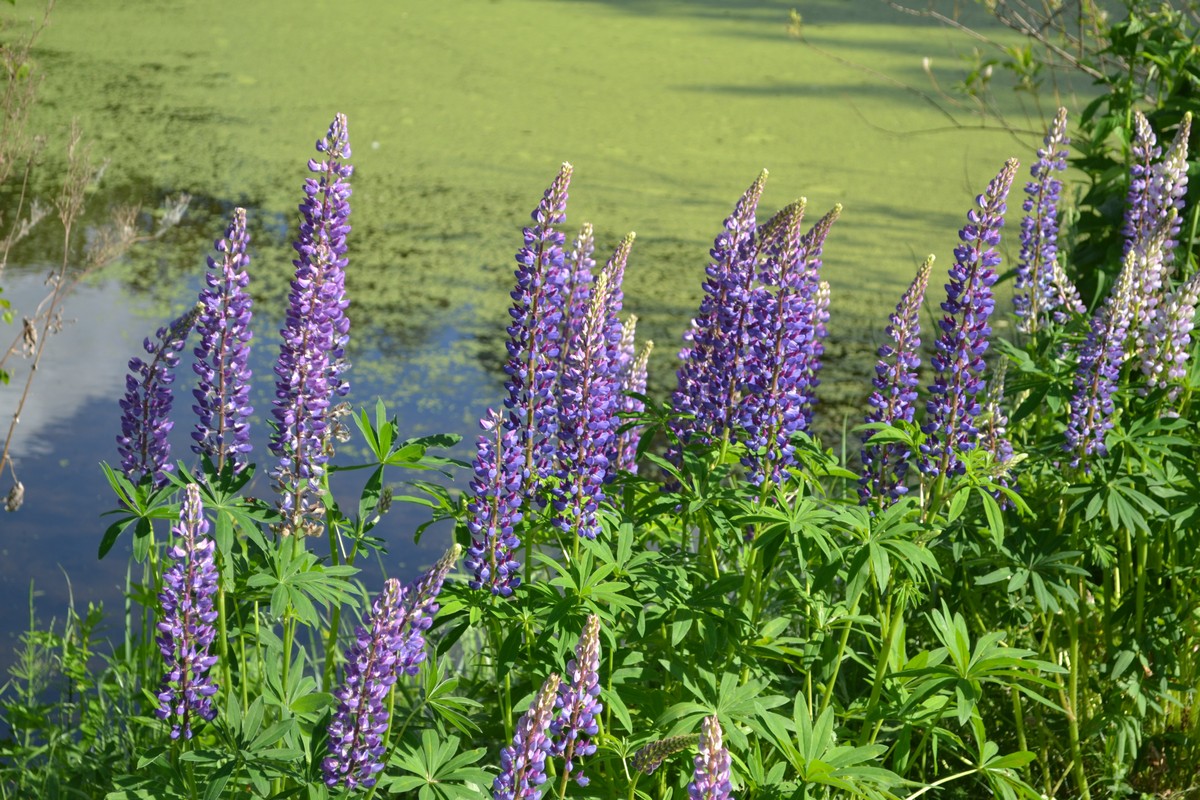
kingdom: Plantae
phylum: Tracheophyta
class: Magnoliopsida
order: Fabales
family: Fabaceae
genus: Lupinus
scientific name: Lupinus polyphyllus
